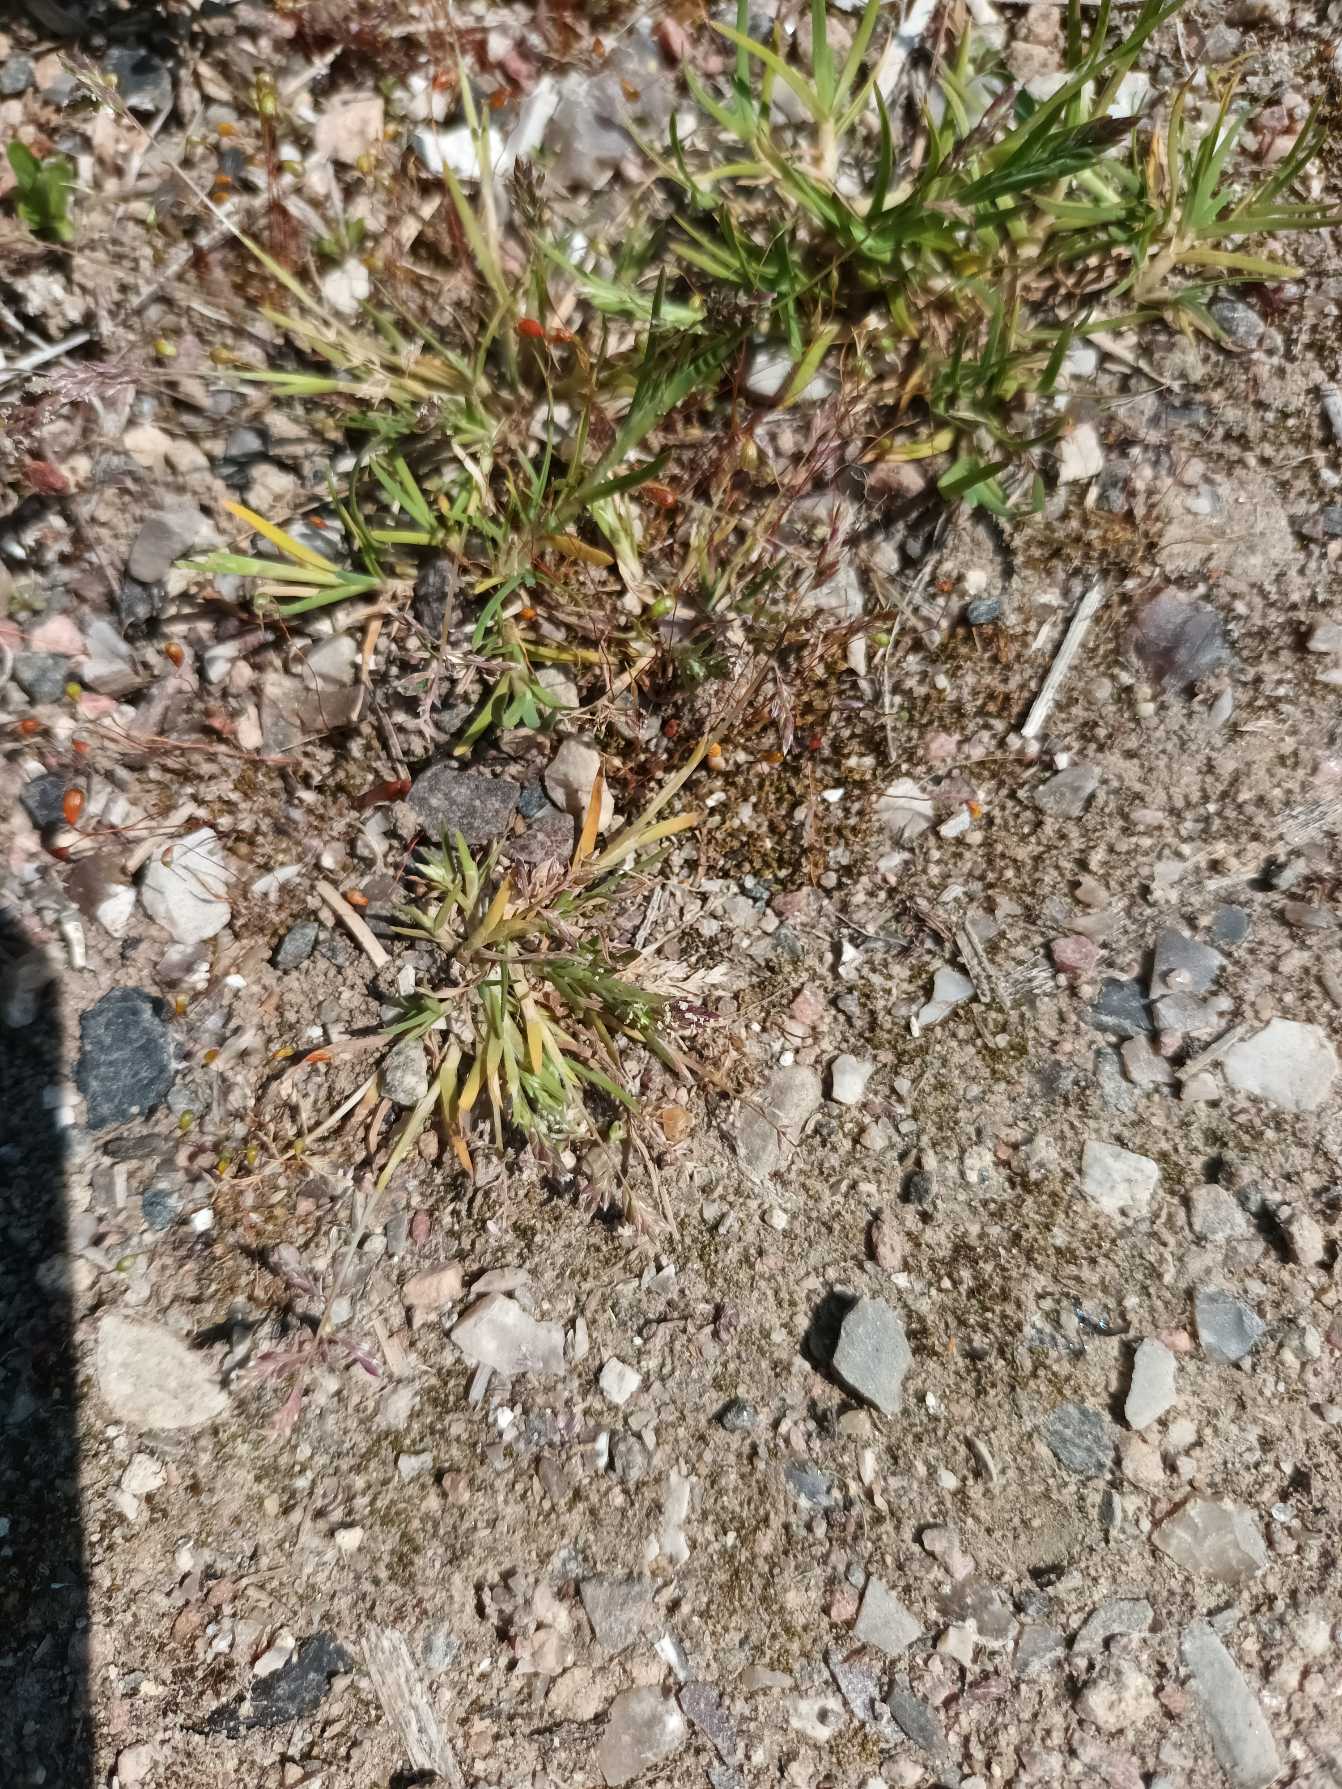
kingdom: Plantae
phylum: Tracheophyta
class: Liliopsida
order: Poales
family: Poaceae
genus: Poa
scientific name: Poa annua
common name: Enårig rapgræs
